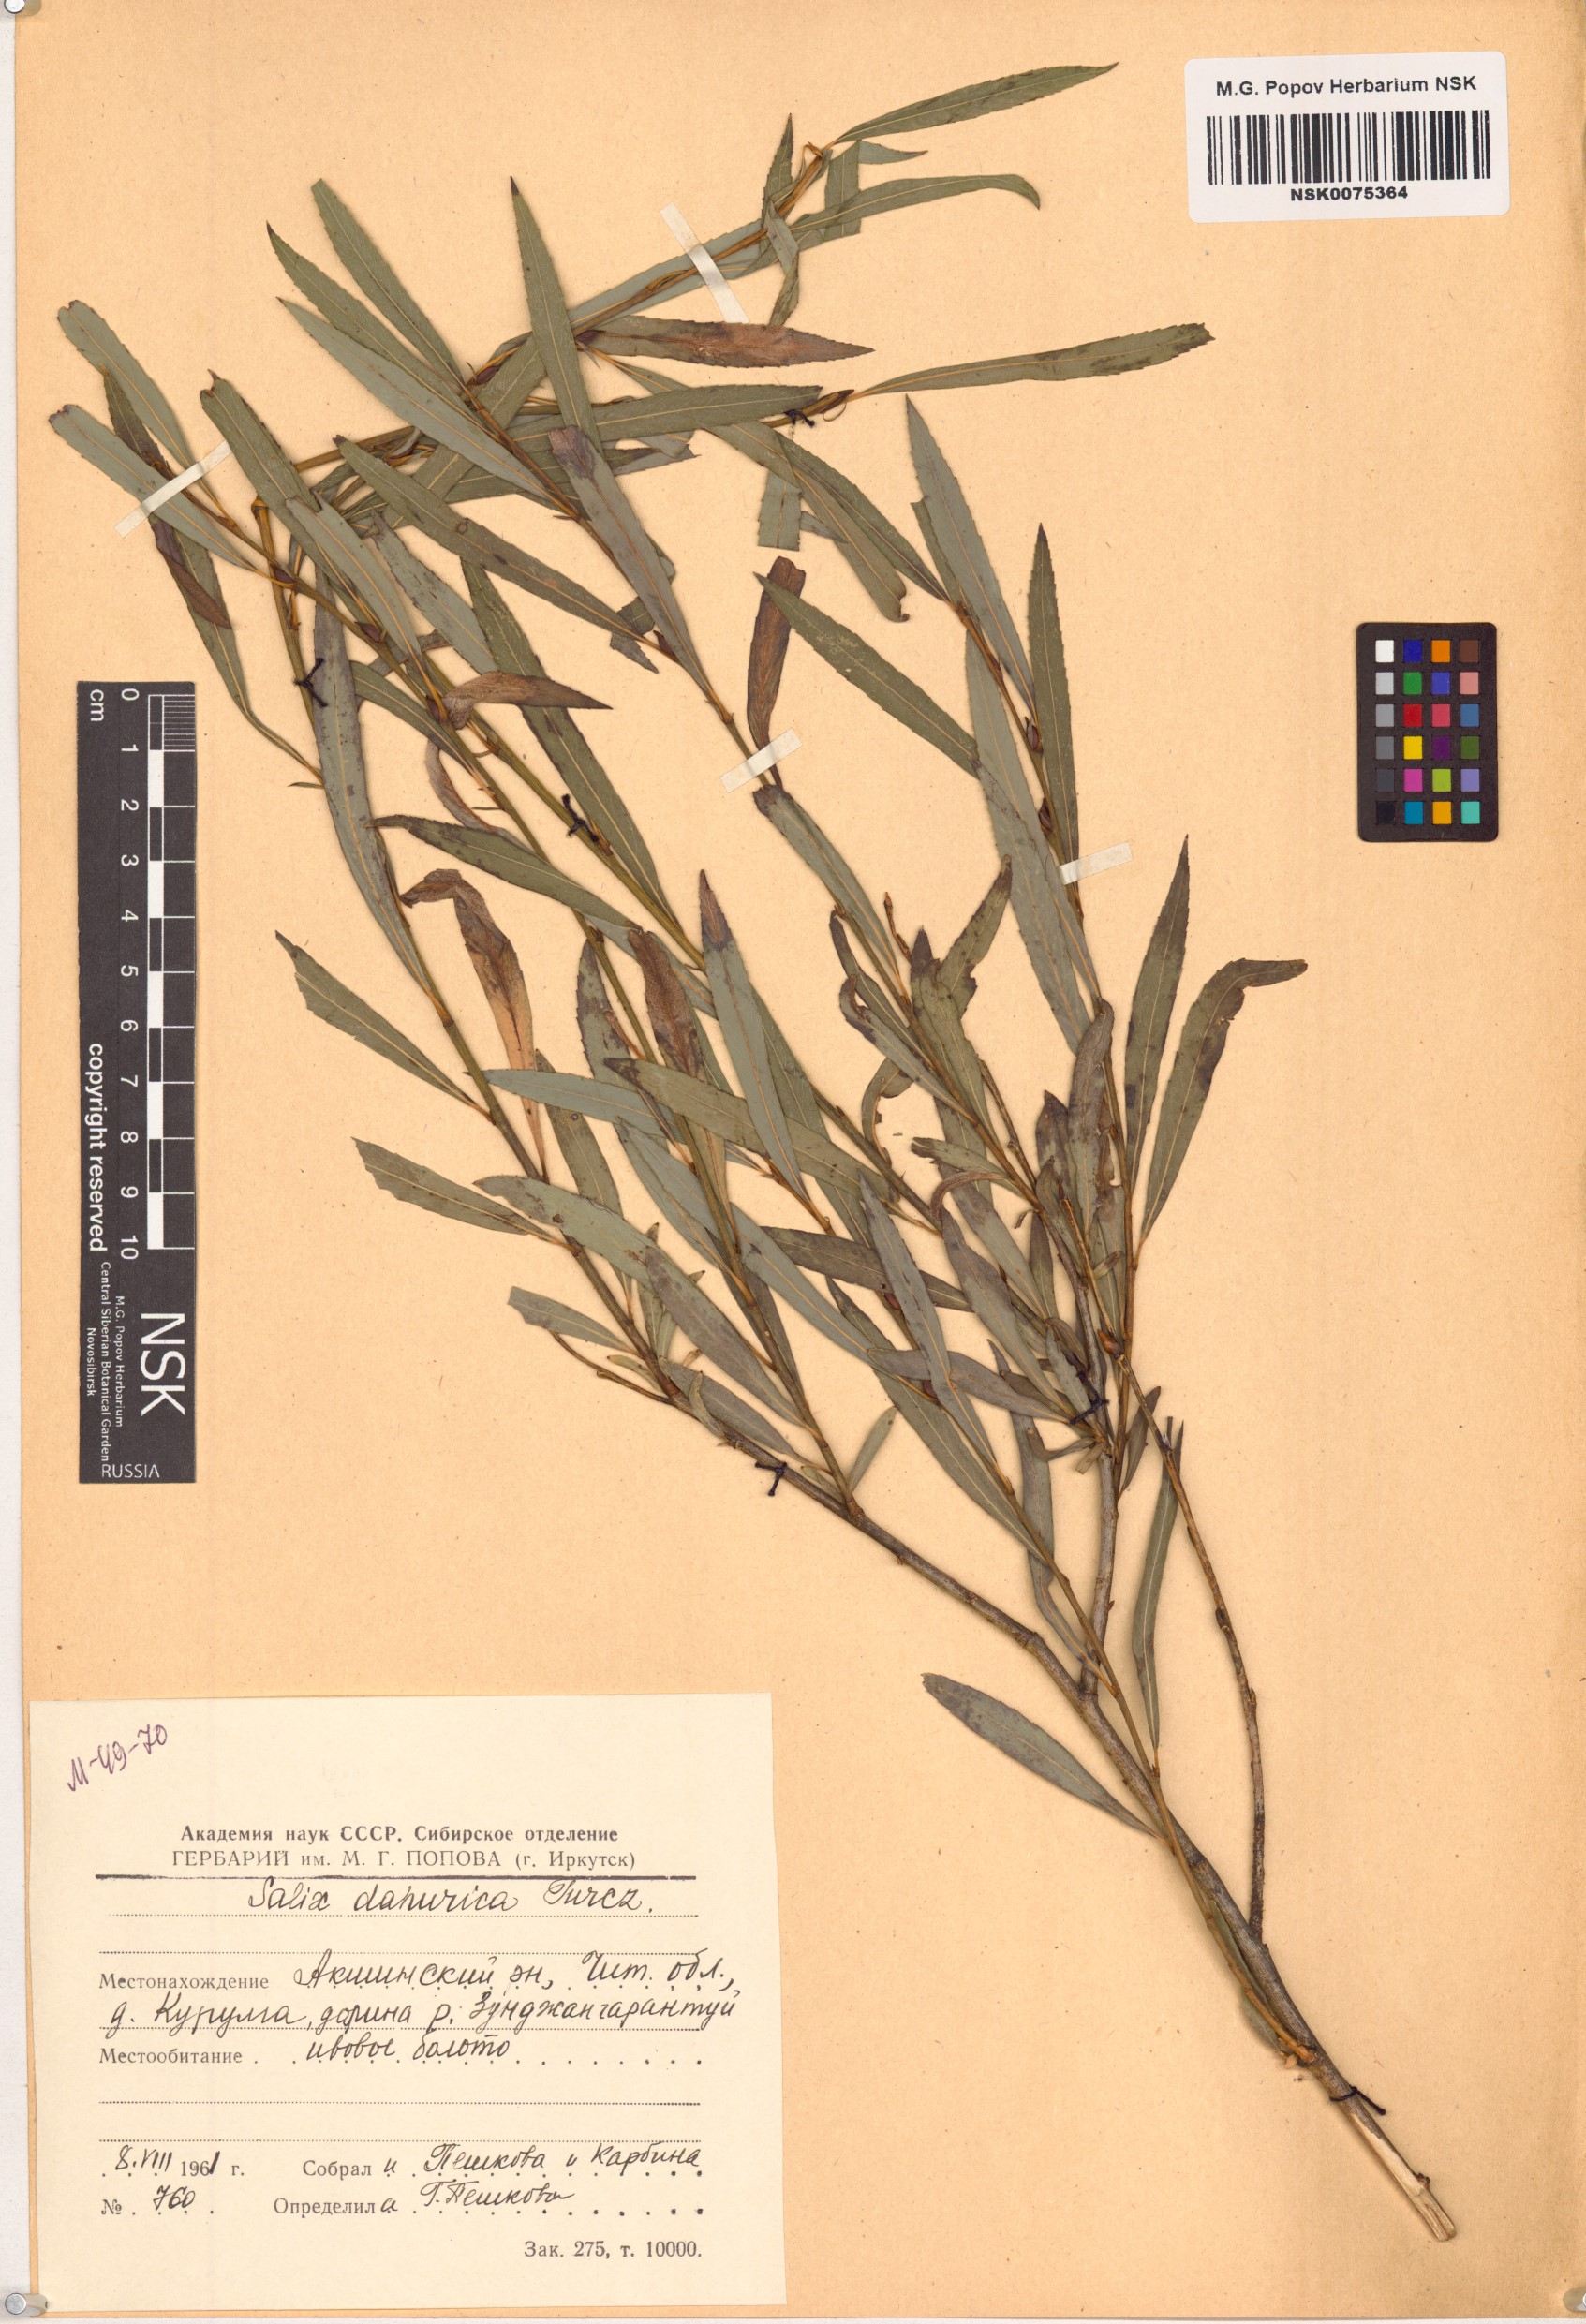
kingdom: Plantae
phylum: Tracheophyta
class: Magnoliopsida
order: Malpighiales
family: Salicaceae
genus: Salix
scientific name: Salix
